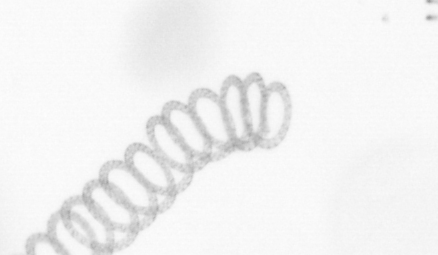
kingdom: Chromista
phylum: Ochrophyta
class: Bacillariophyceae
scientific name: Bacillariophyceae
